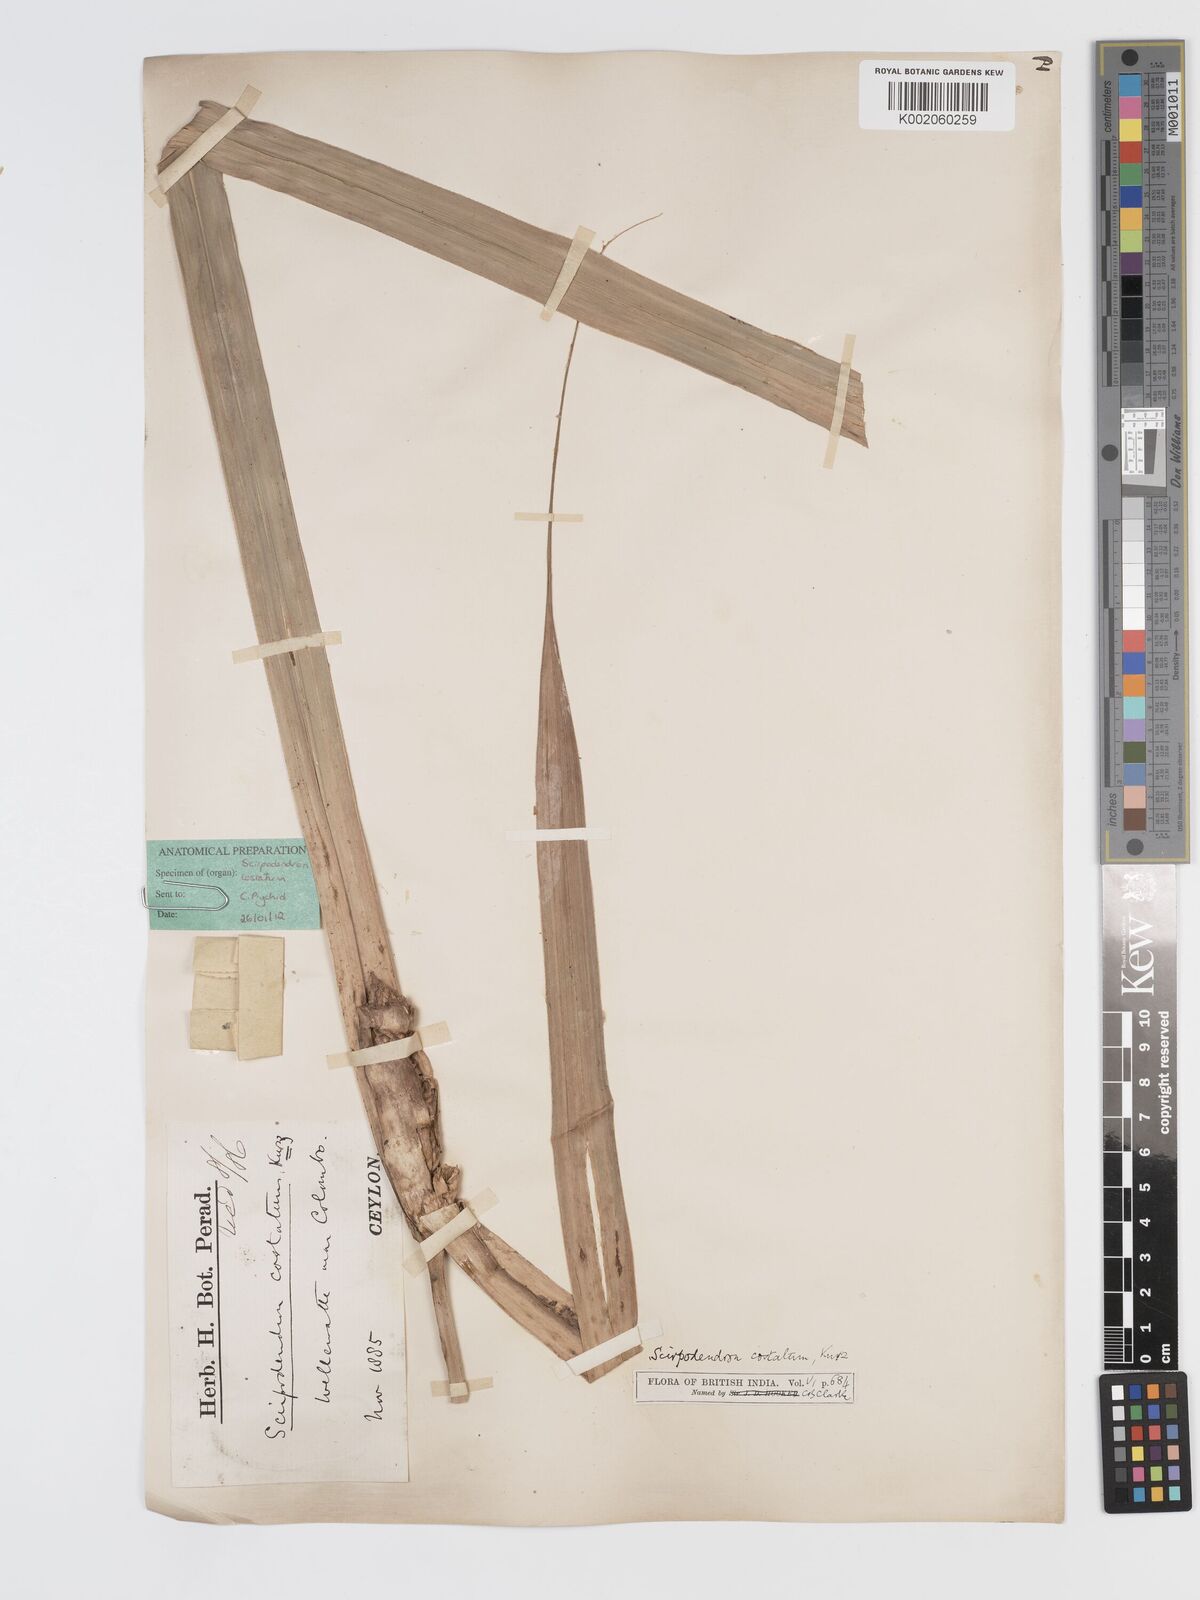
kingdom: Plantae
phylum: Tracheophyta
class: Liliopsida
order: Poales
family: Cyperaceae
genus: Scirpodendron
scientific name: Scirpodendron ghaeri
